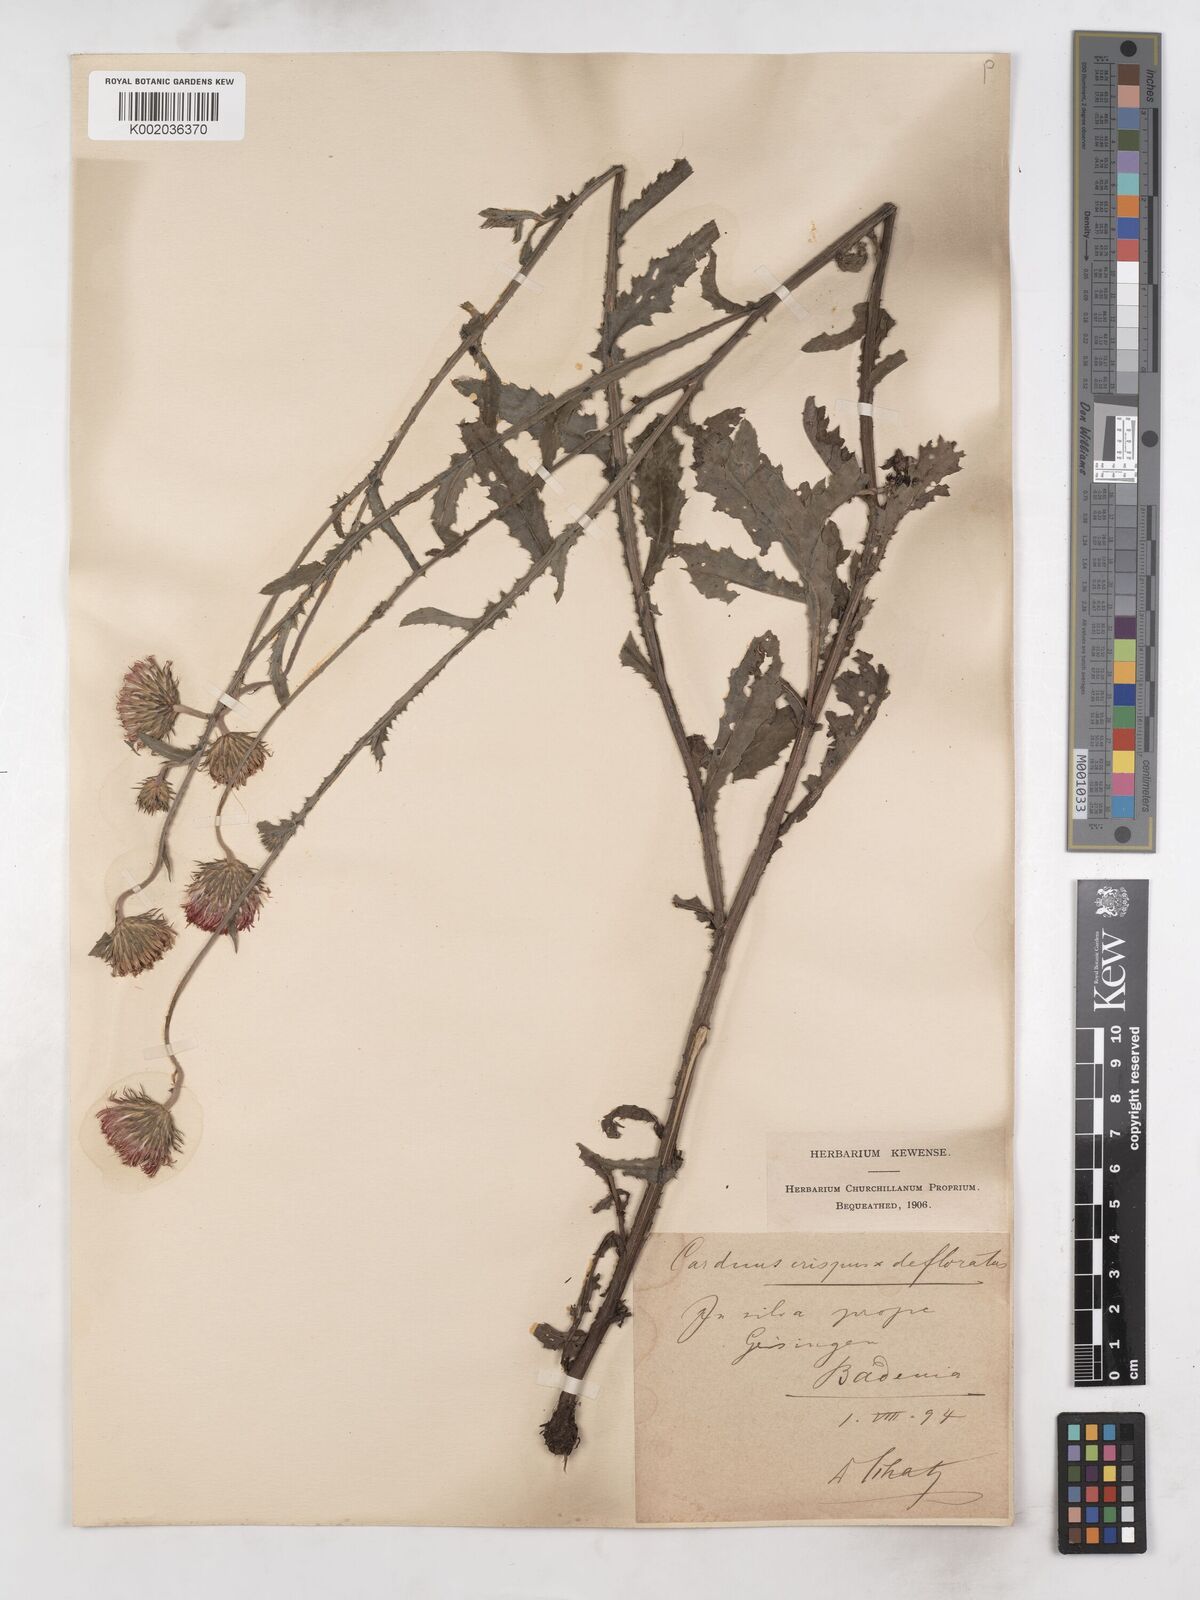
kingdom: Plantae
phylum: Tracheophyta
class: Magnoliopsida
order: Asterales
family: Asteraceae
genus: Carduus
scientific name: Carduus crispus
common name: Welted thistle
